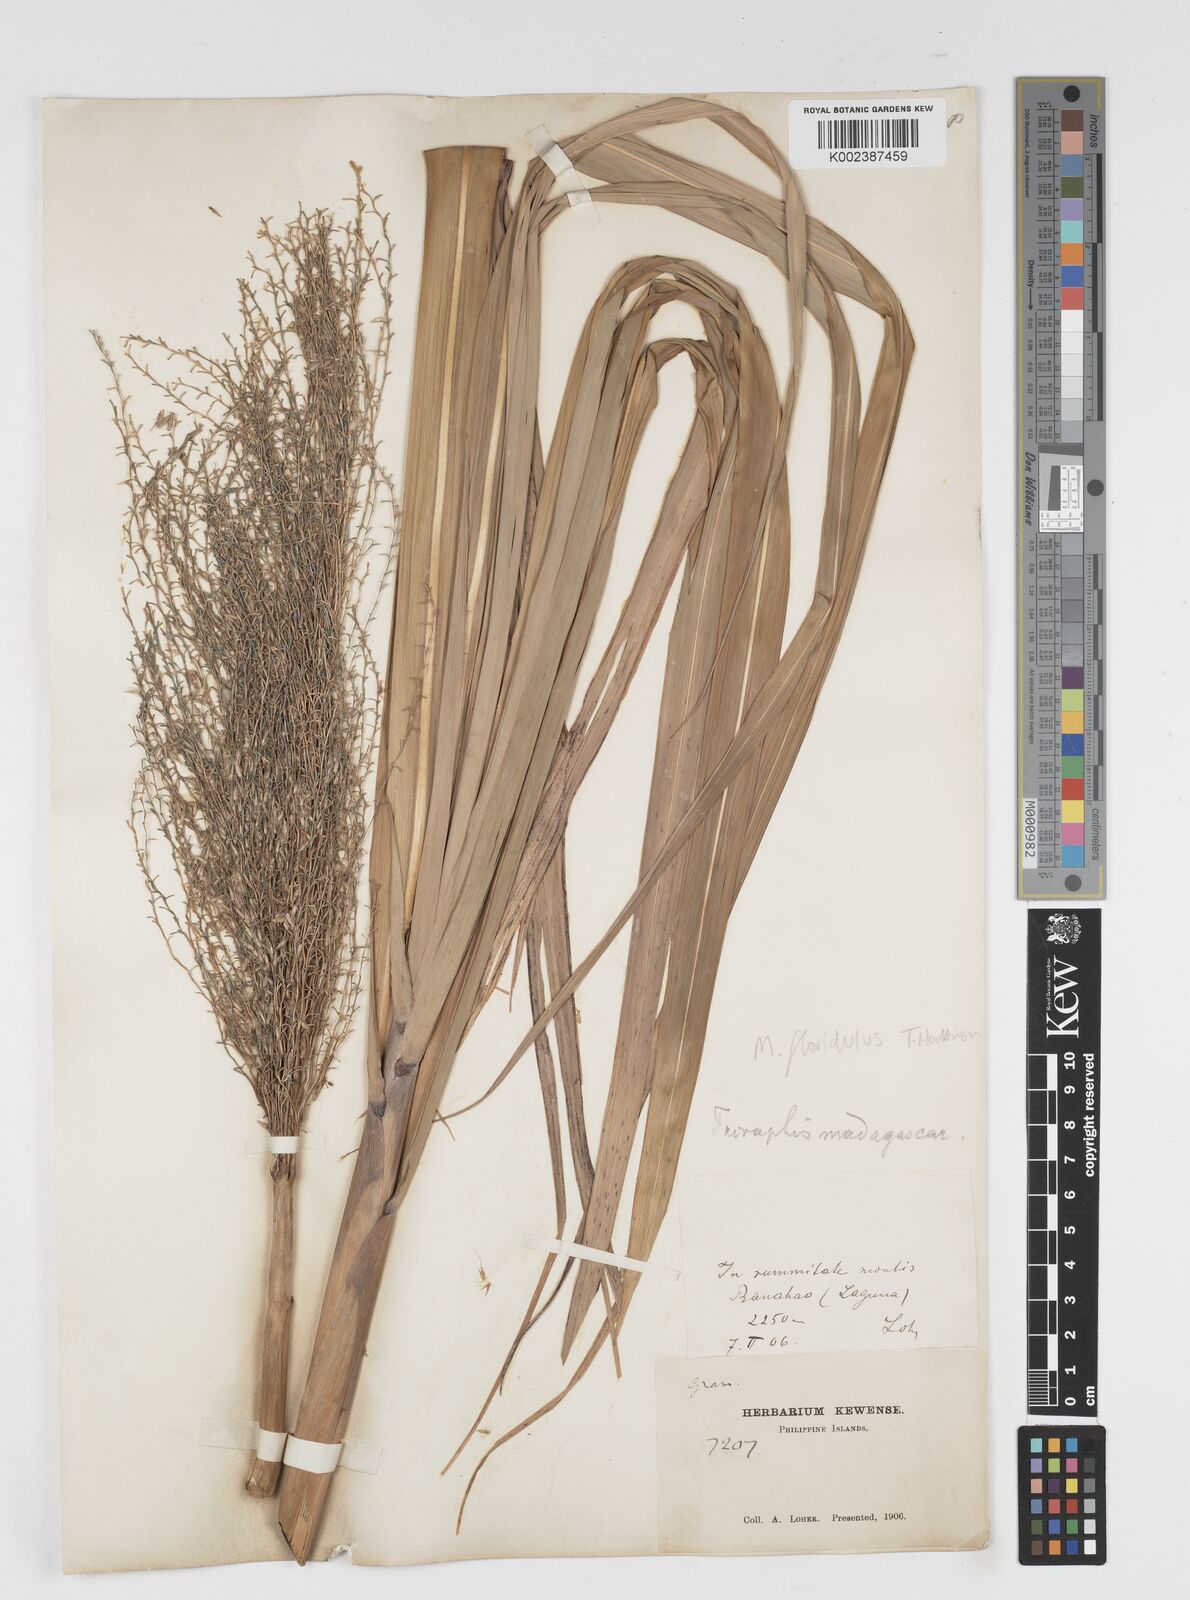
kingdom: Plantae
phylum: Tracheophyta
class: Liliopsida
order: Poales
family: Poaceae
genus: Miscanthus
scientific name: Miscanthus
